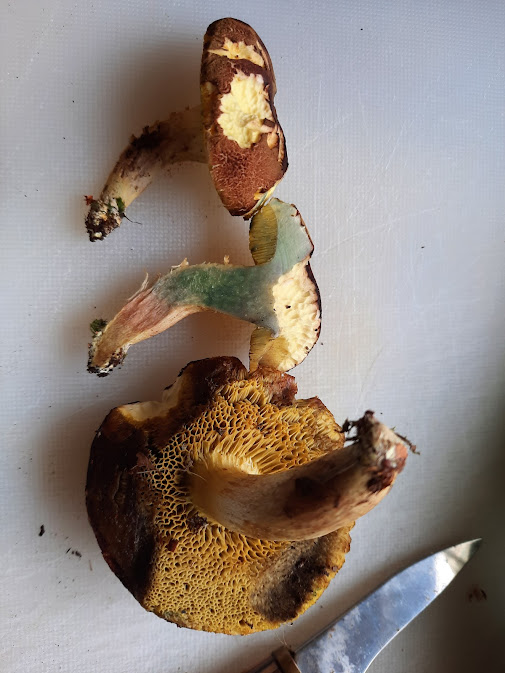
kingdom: Fungi
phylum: Basidiomycota
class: Agaricomycetes
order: Russulales
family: Russulaceae
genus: Russula
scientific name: Russula
